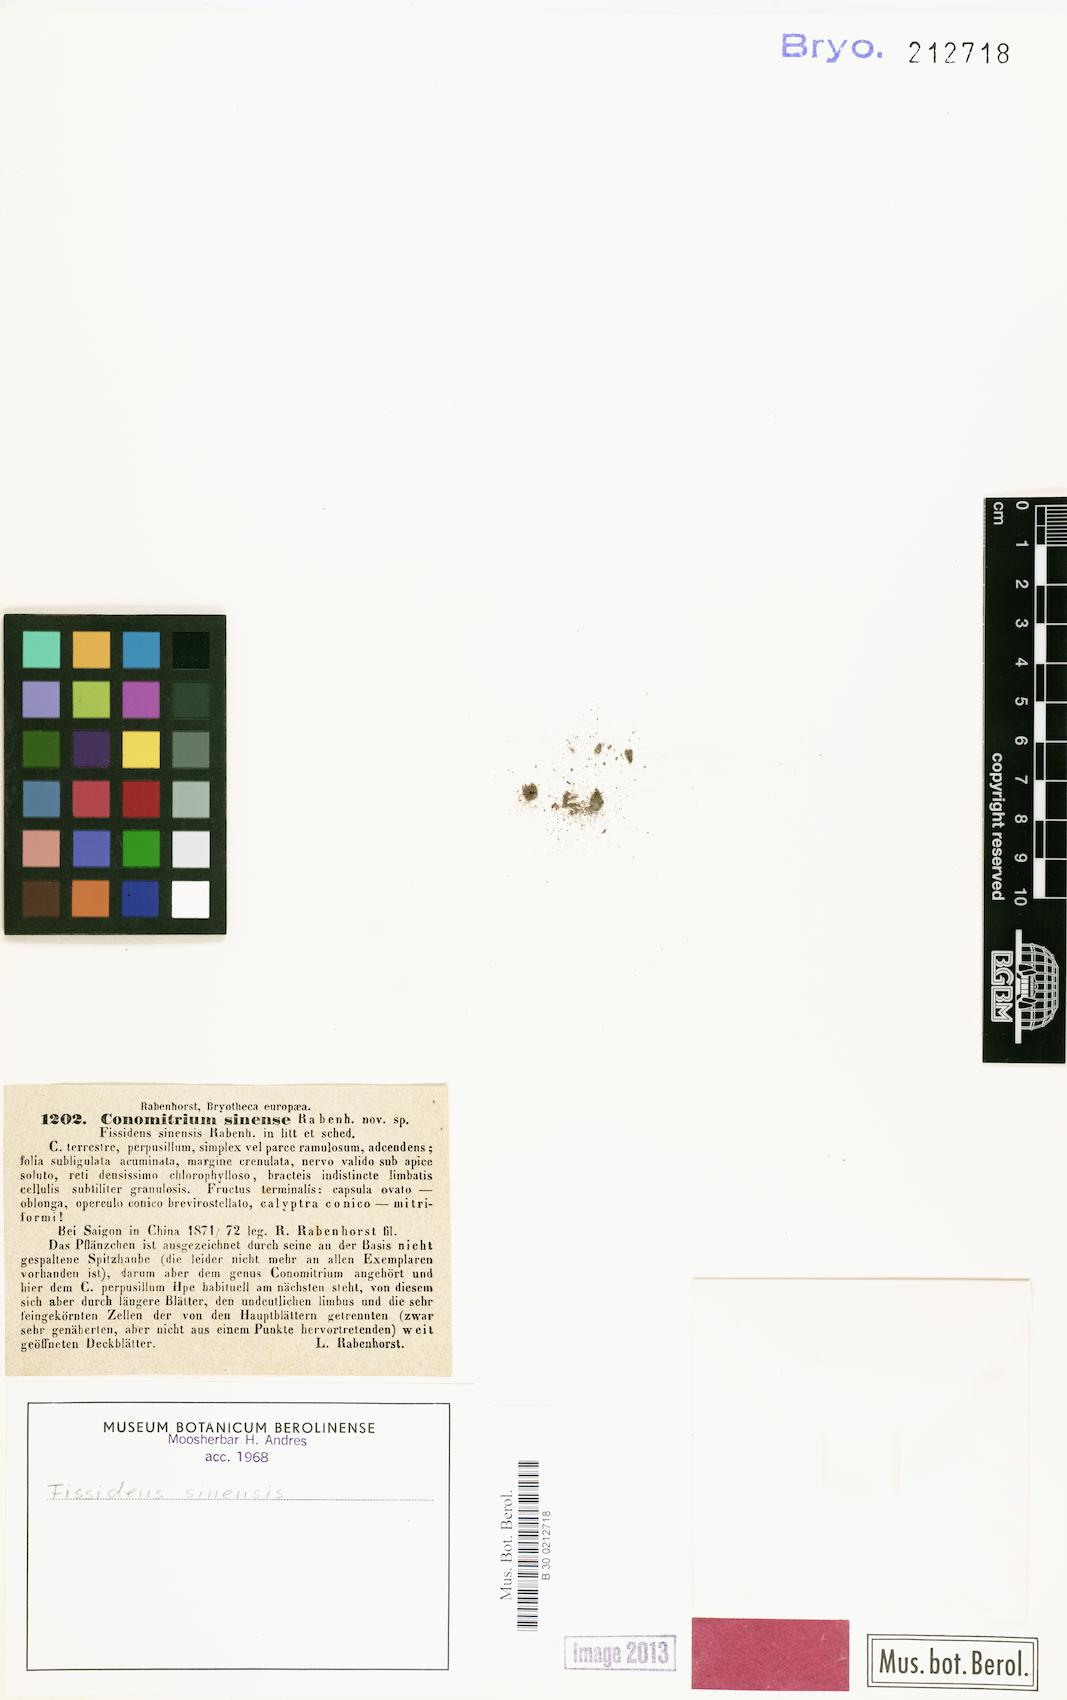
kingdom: Plantae
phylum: Bryophyta
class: Bryopsida
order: Dicranales
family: Fissidentaceae
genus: Fissidens
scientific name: Fissidens crenulatus
